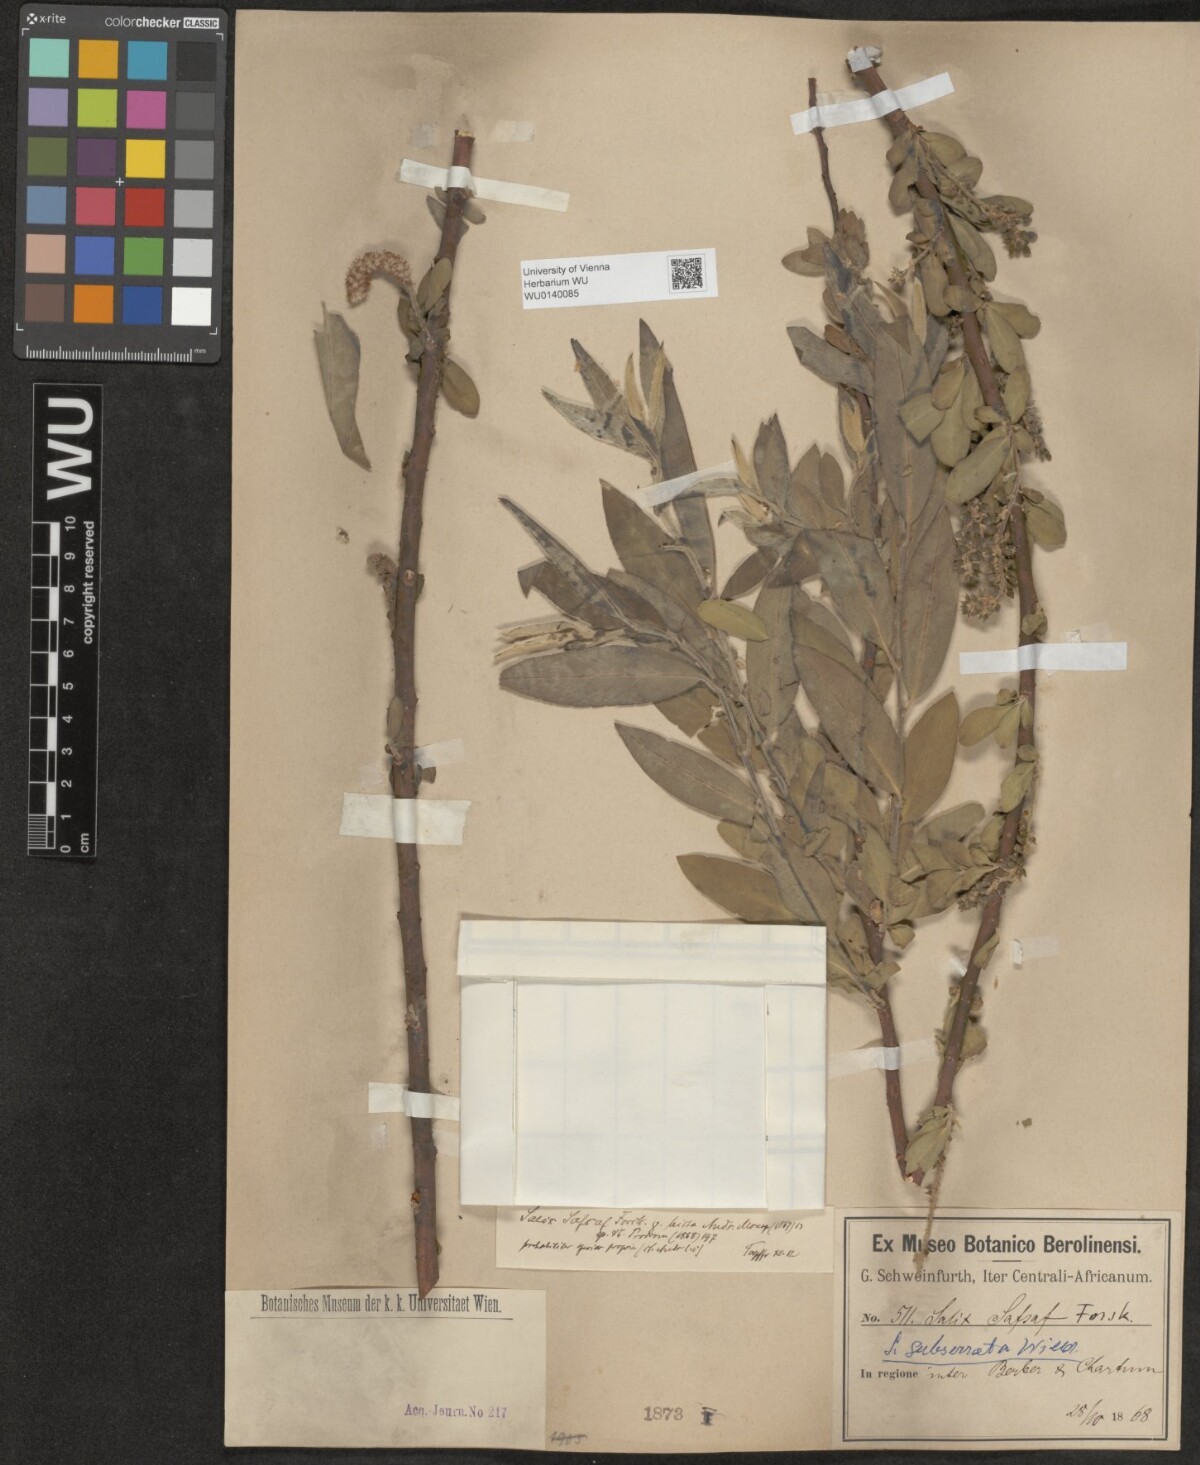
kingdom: Plantae
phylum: Tracheophyta
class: Magnoliopsida
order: Malpighiales
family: Salicaceae
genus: Salix
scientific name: Salix mucronata
